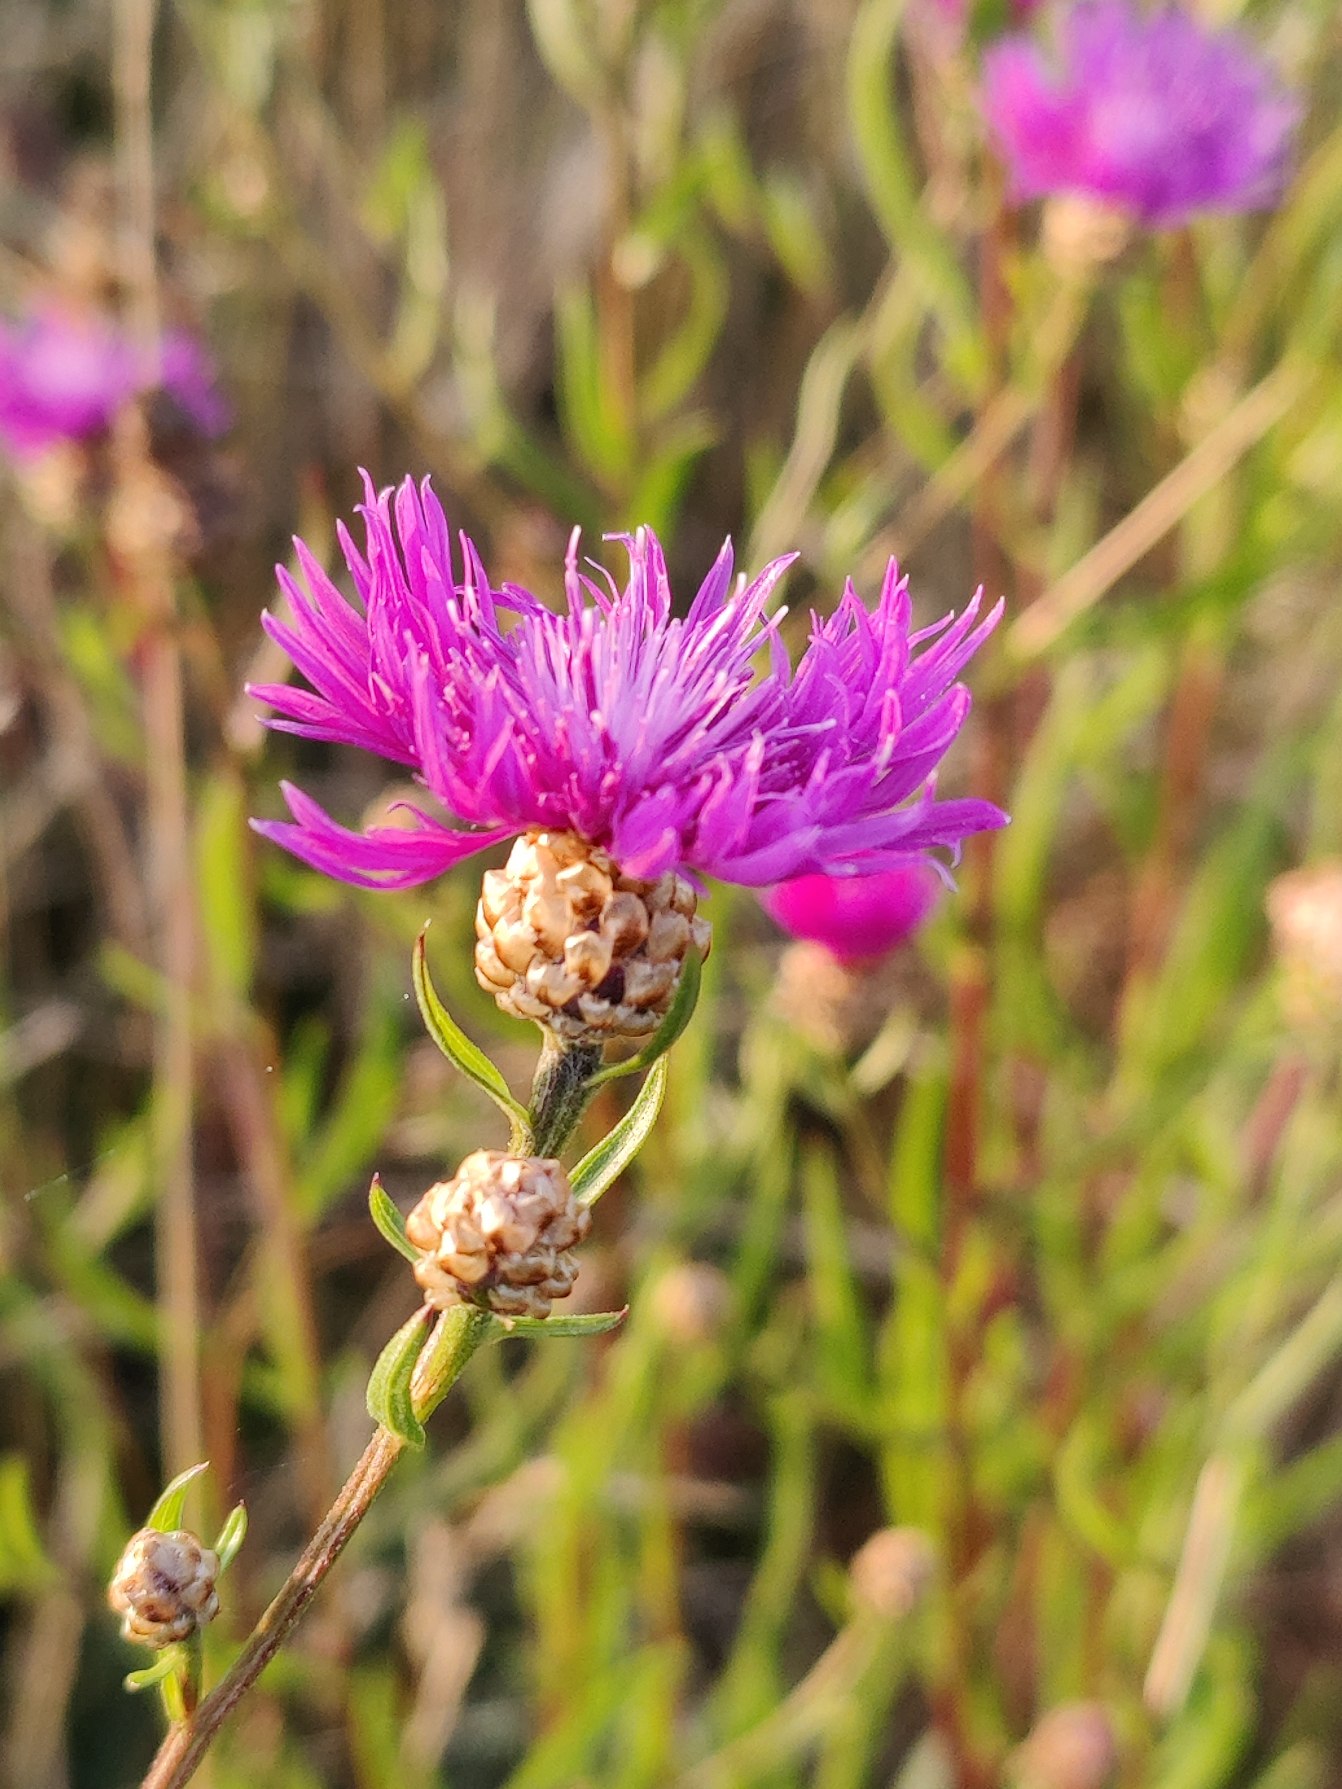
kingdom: Plantae
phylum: Tracheophyta
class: Magnoliopsida
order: Asterales
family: Asteraceae
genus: Centaurea
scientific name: Centaurea jacea
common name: Almindelig knopurt
